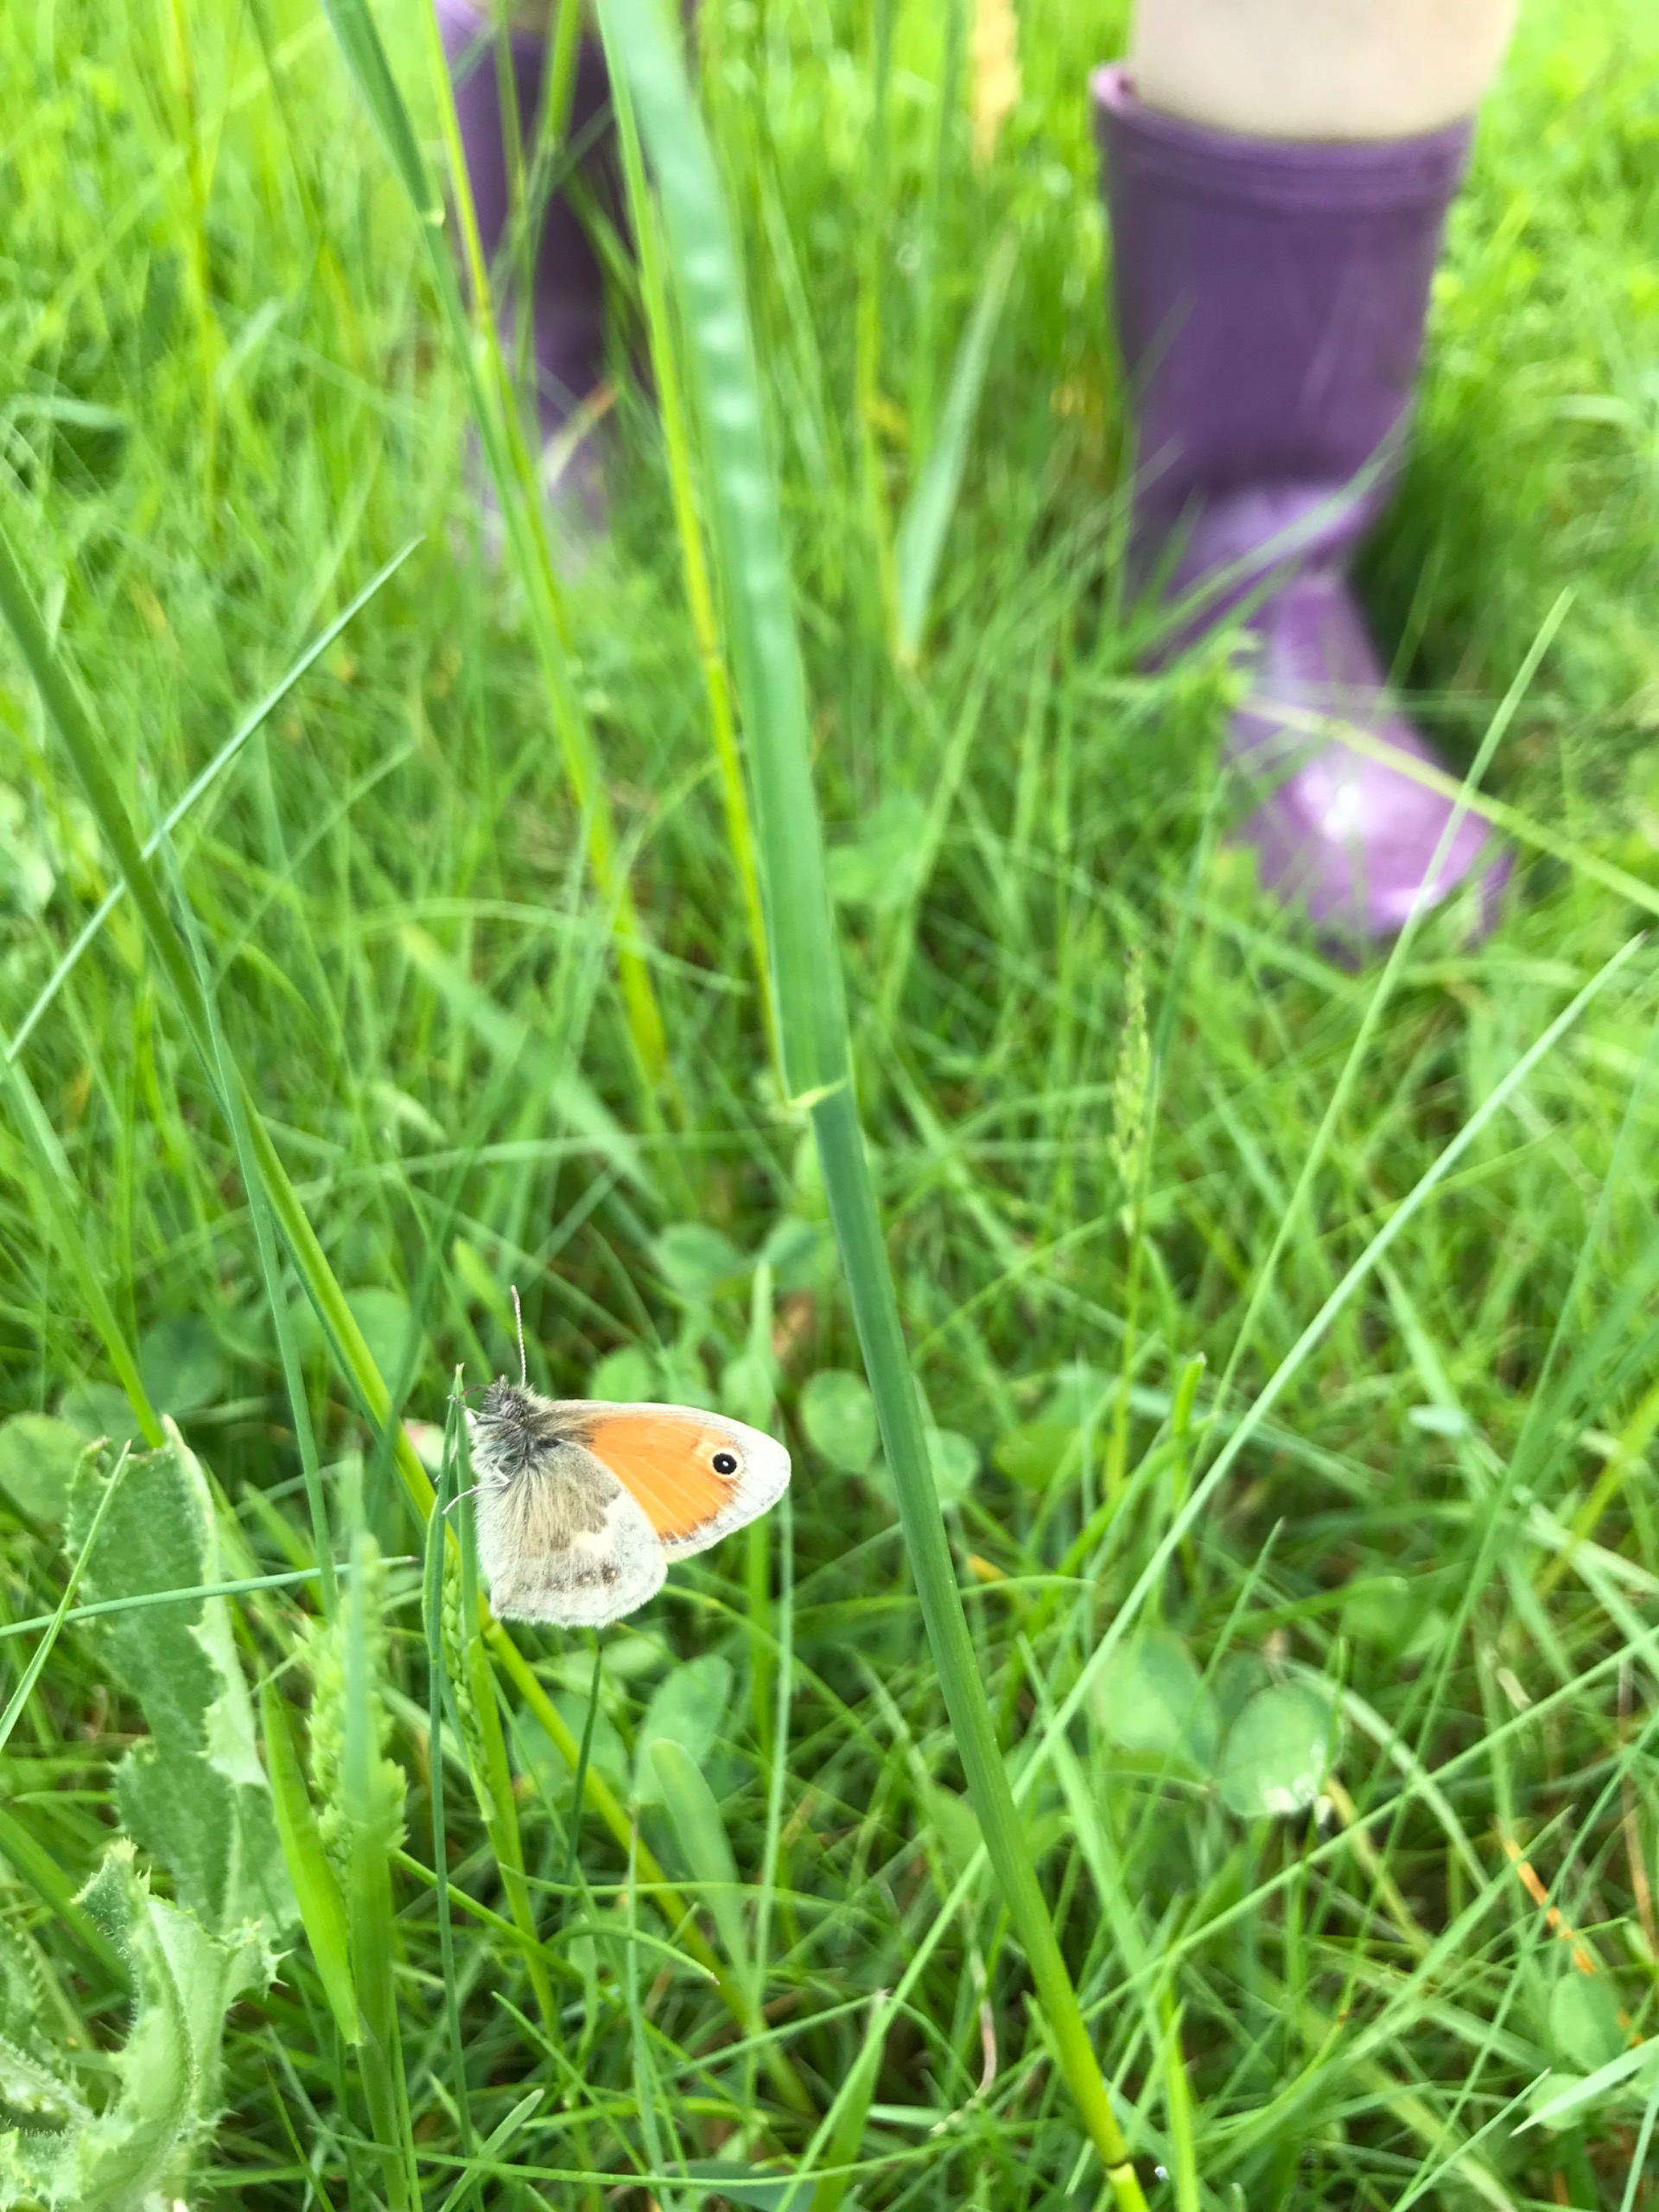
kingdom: Animalia
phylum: Arthropoda
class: Insecta
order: Lepidoptera
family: Nymphalidae
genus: Coenonympha
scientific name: Coenonympha pamphilus
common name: Okkergul randøje
